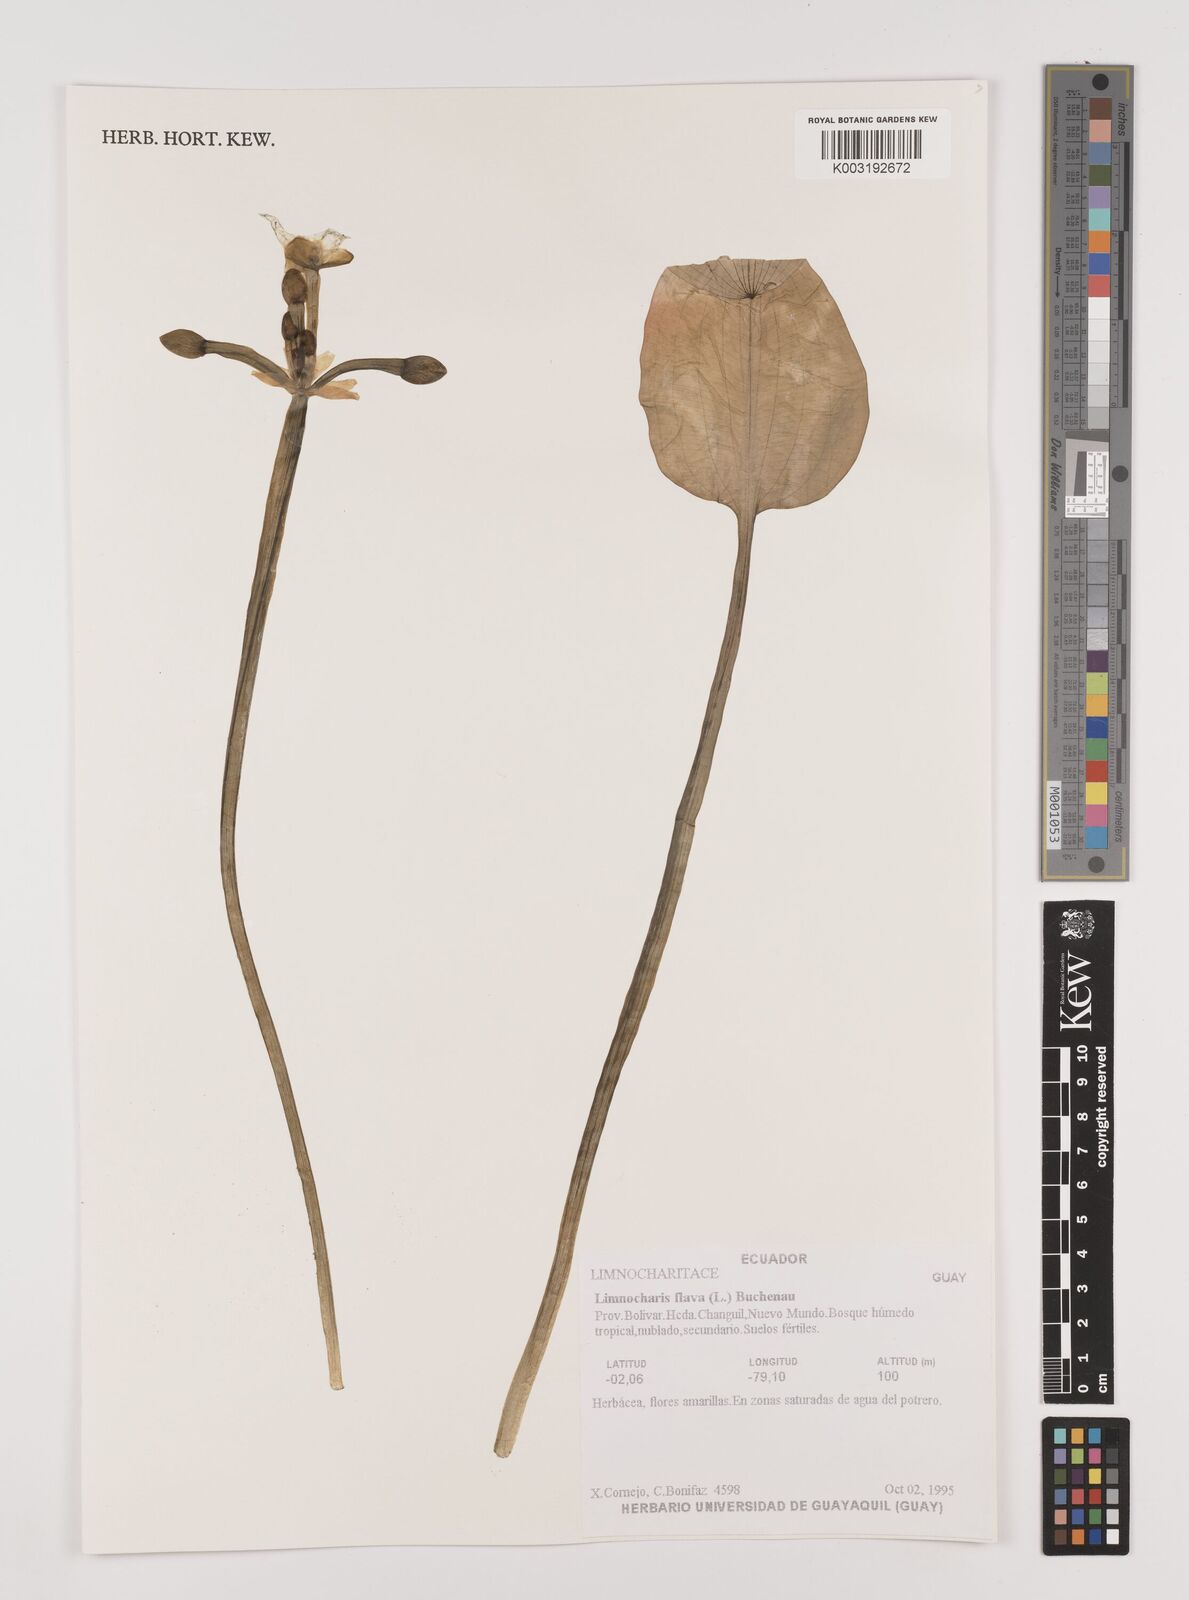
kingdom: Plantae
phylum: Tracheophyta
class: Liliopsida
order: Alismatales
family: Alismataceae
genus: Limnocharis
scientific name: Limnocharis flava
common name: Sawah-flower-rush
